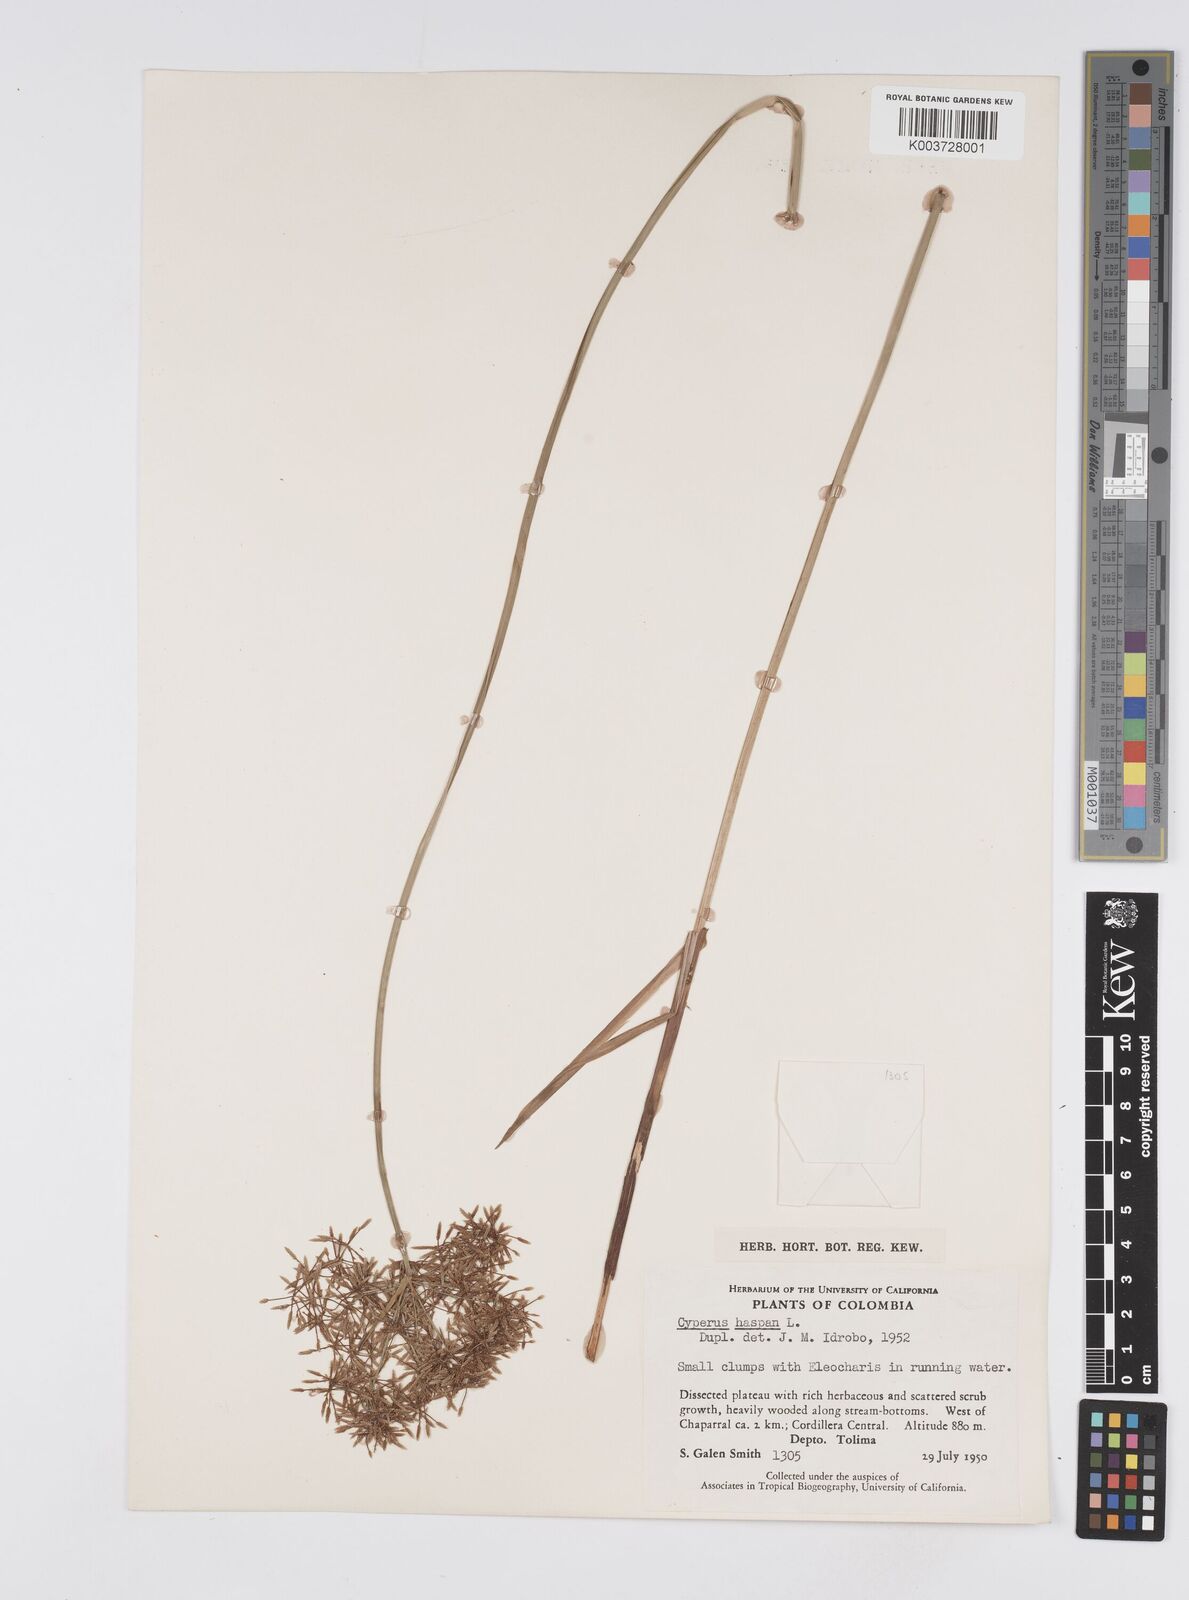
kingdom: Plantae
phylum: Tracheophyta
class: Liliopsida
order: Poales
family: Cyperaceae
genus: Cyperus
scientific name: Cyperus haspan
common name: Haspan flatsedge
